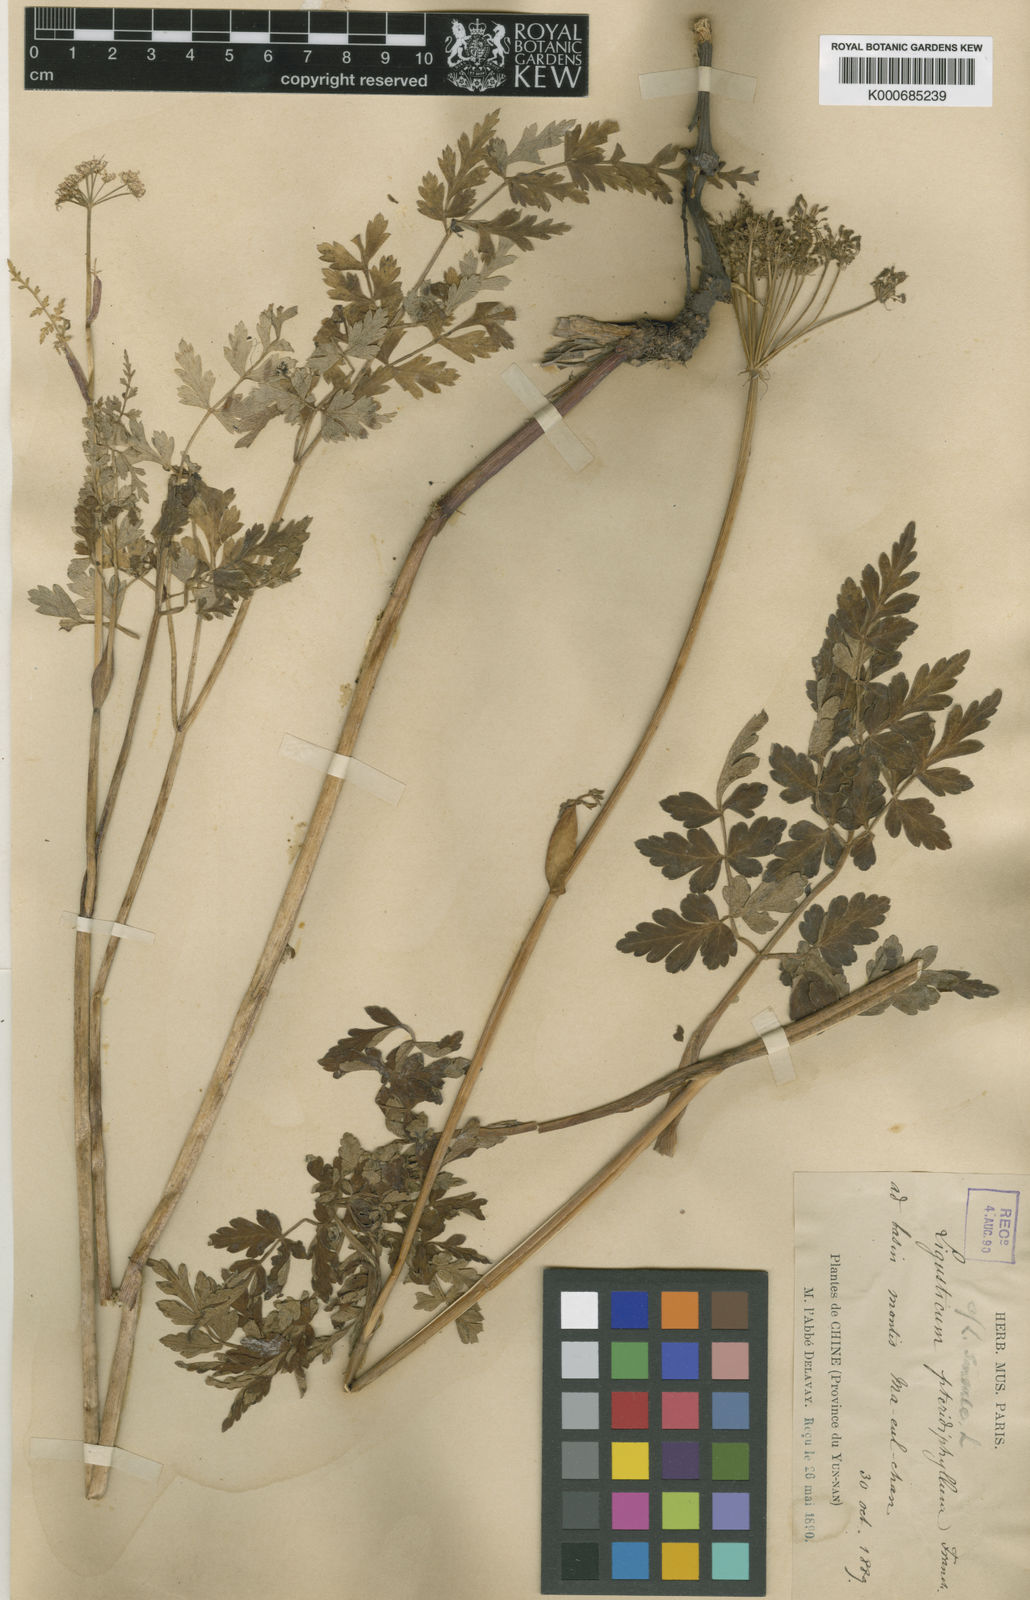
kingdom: Plantae
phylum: Tracheophyta
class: Magnoliopsida
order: Apiales
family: Apiaceae
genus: Conioselinum
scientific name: Conioselinum pteridophyllum
